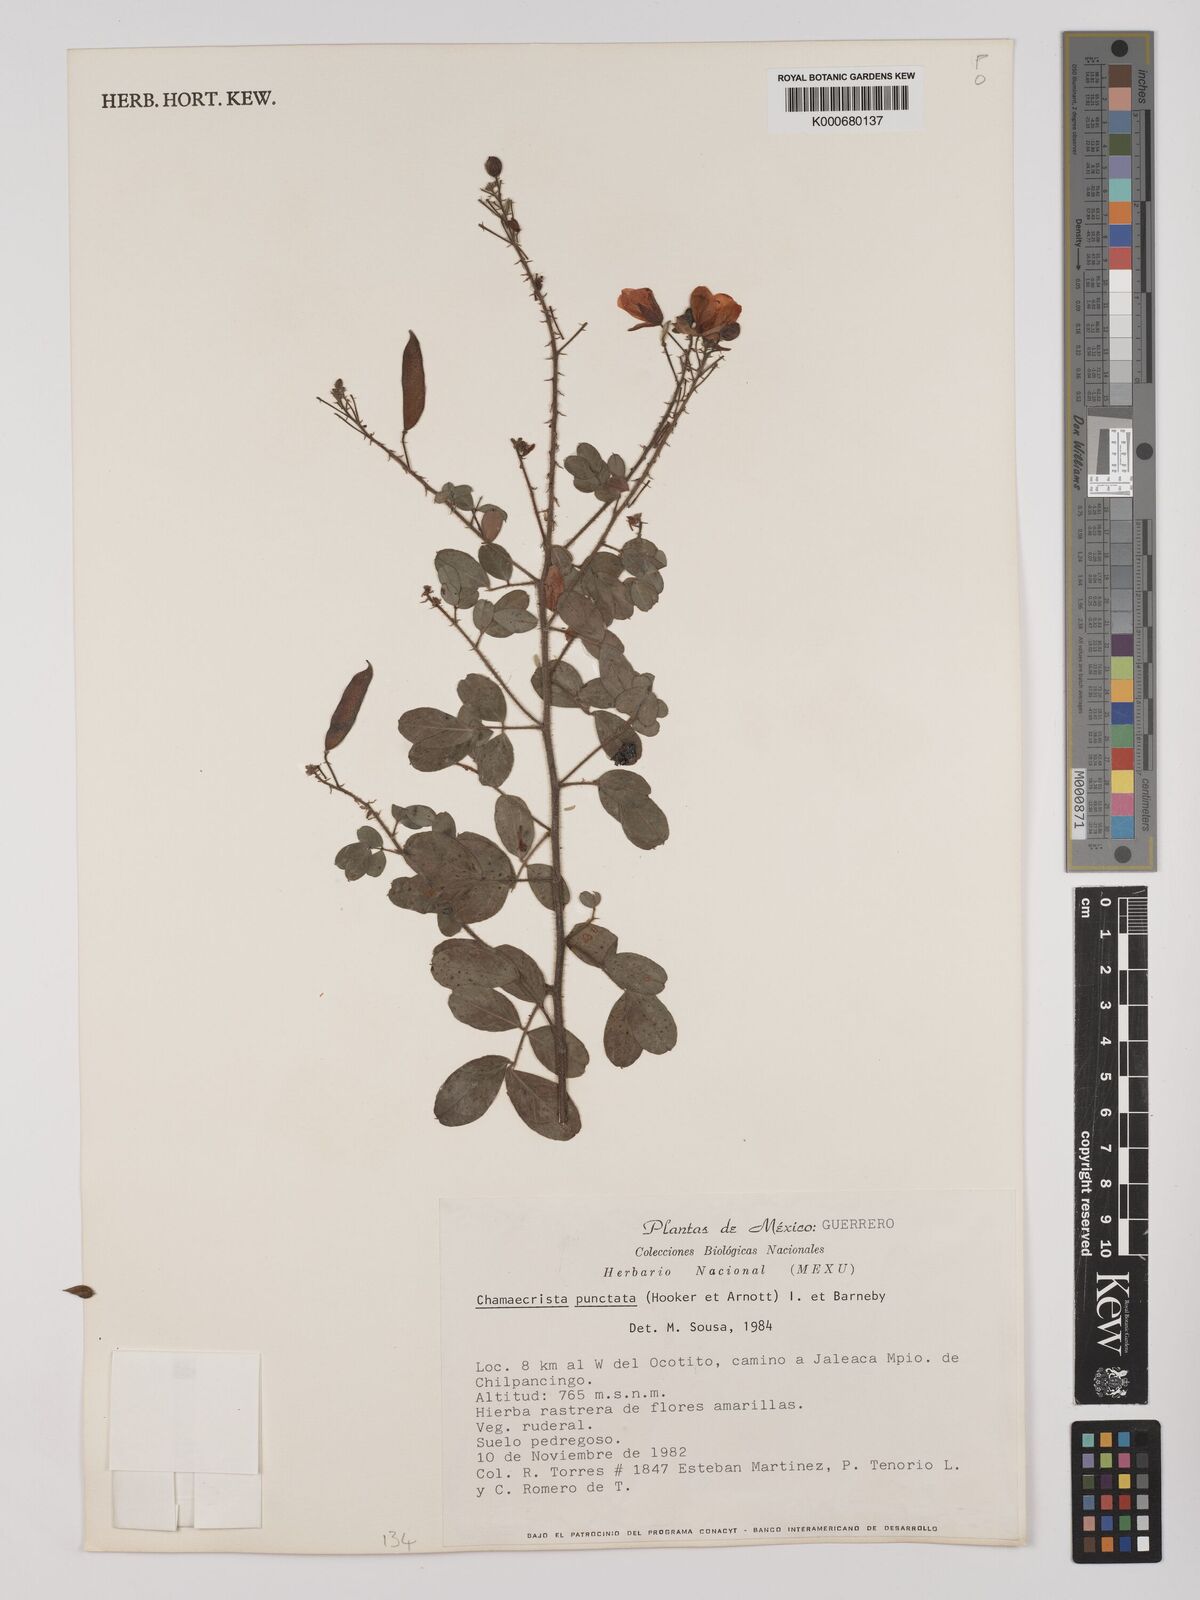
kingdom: Plantae
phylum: Tracheophyta
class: Magnoliopsida
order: Fabales
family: Fabaceae
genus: Chamaecrista
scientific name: Chamaecrista punctata
